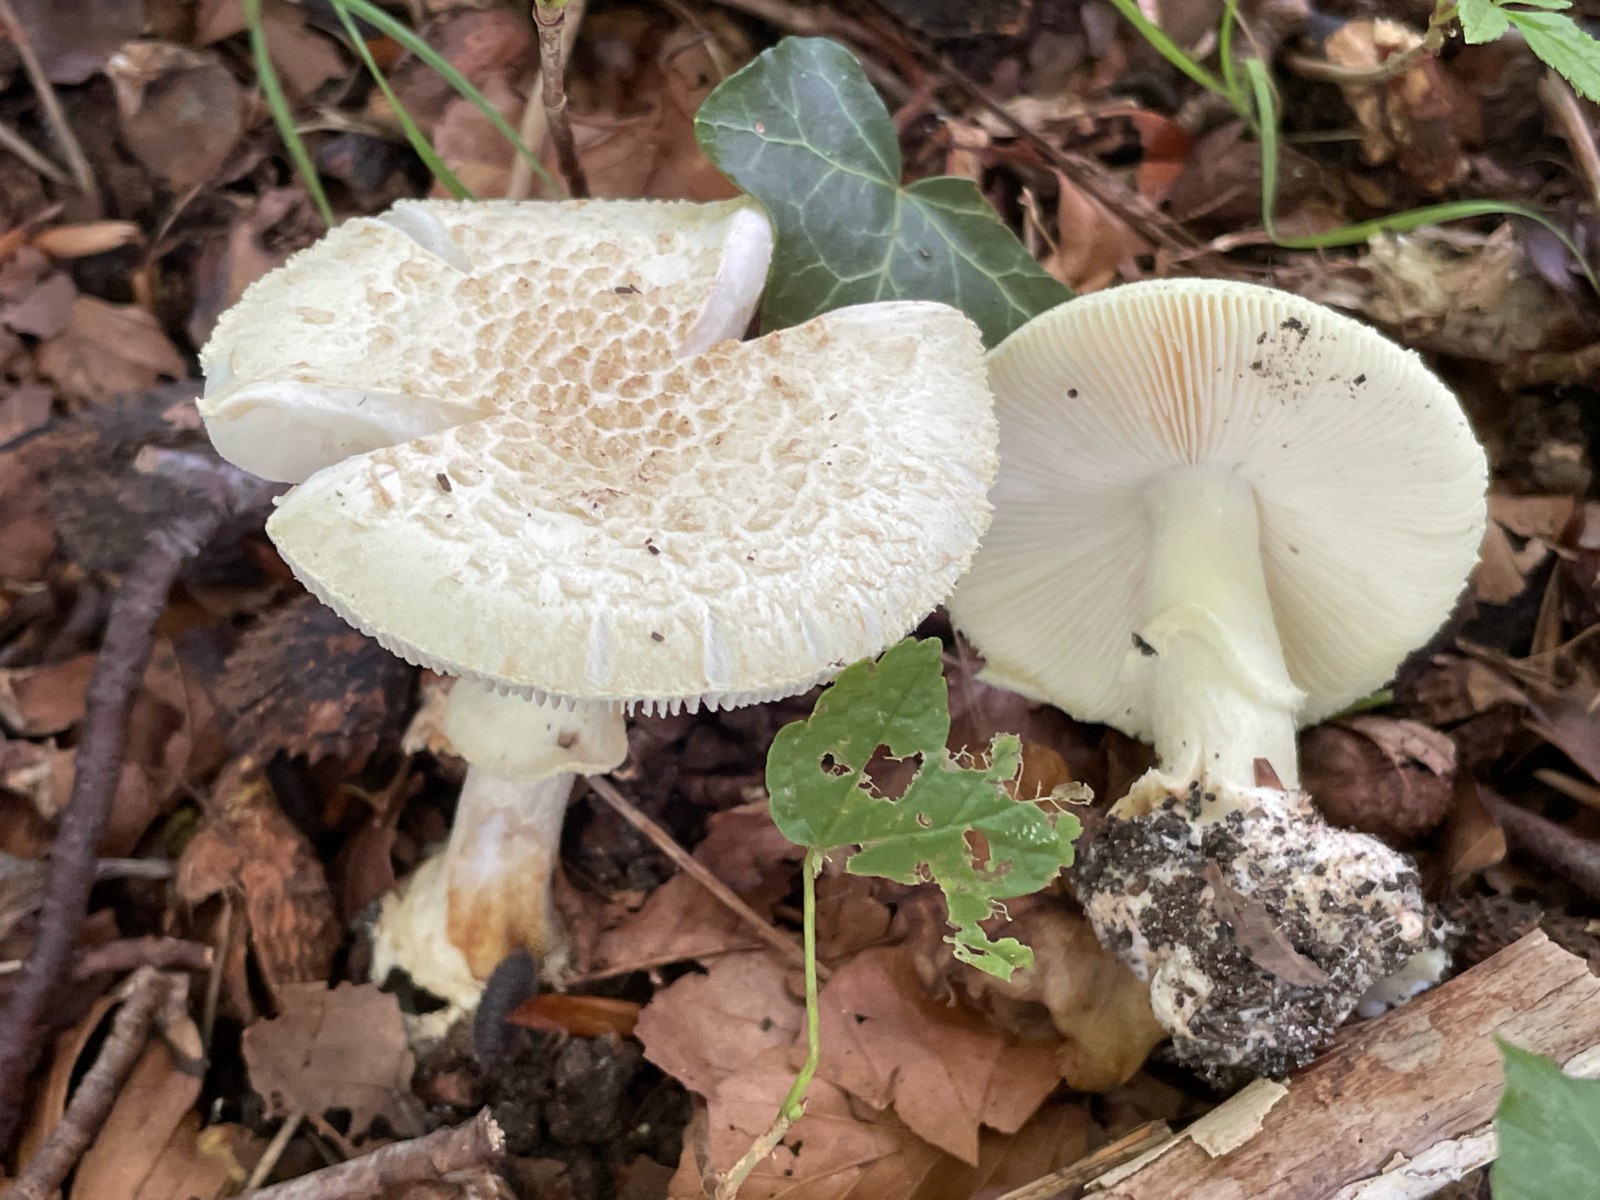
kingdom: Fungi
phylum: Basidiomycota
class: Agaricomycetes
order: Agaricales
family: Amanitaceae
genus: Amanita
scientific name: Amanita citrina
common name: kugleknoldet fluesvamp
